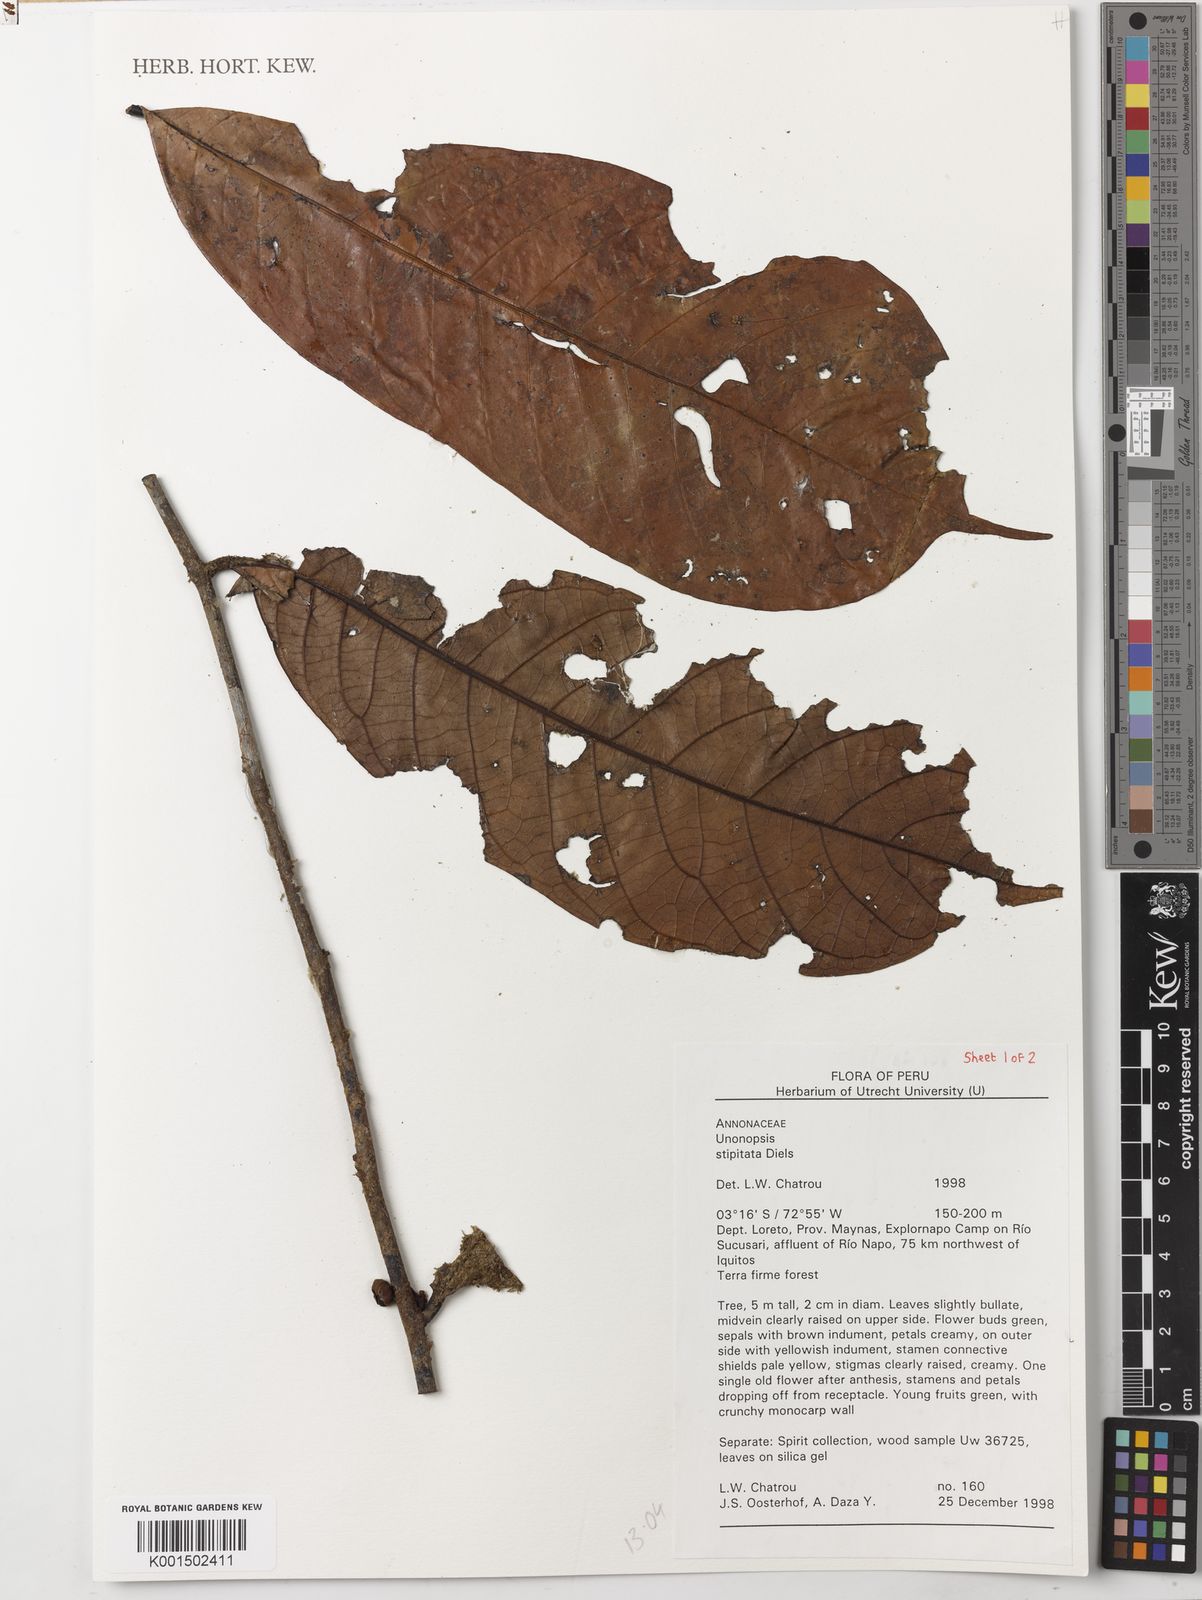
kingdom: Plantae
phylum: Tracheophyta
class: Magnoliopsida
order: Magnoliales
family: Annonaceae
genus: Unonopsis
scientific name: Unonopsis stipitata
